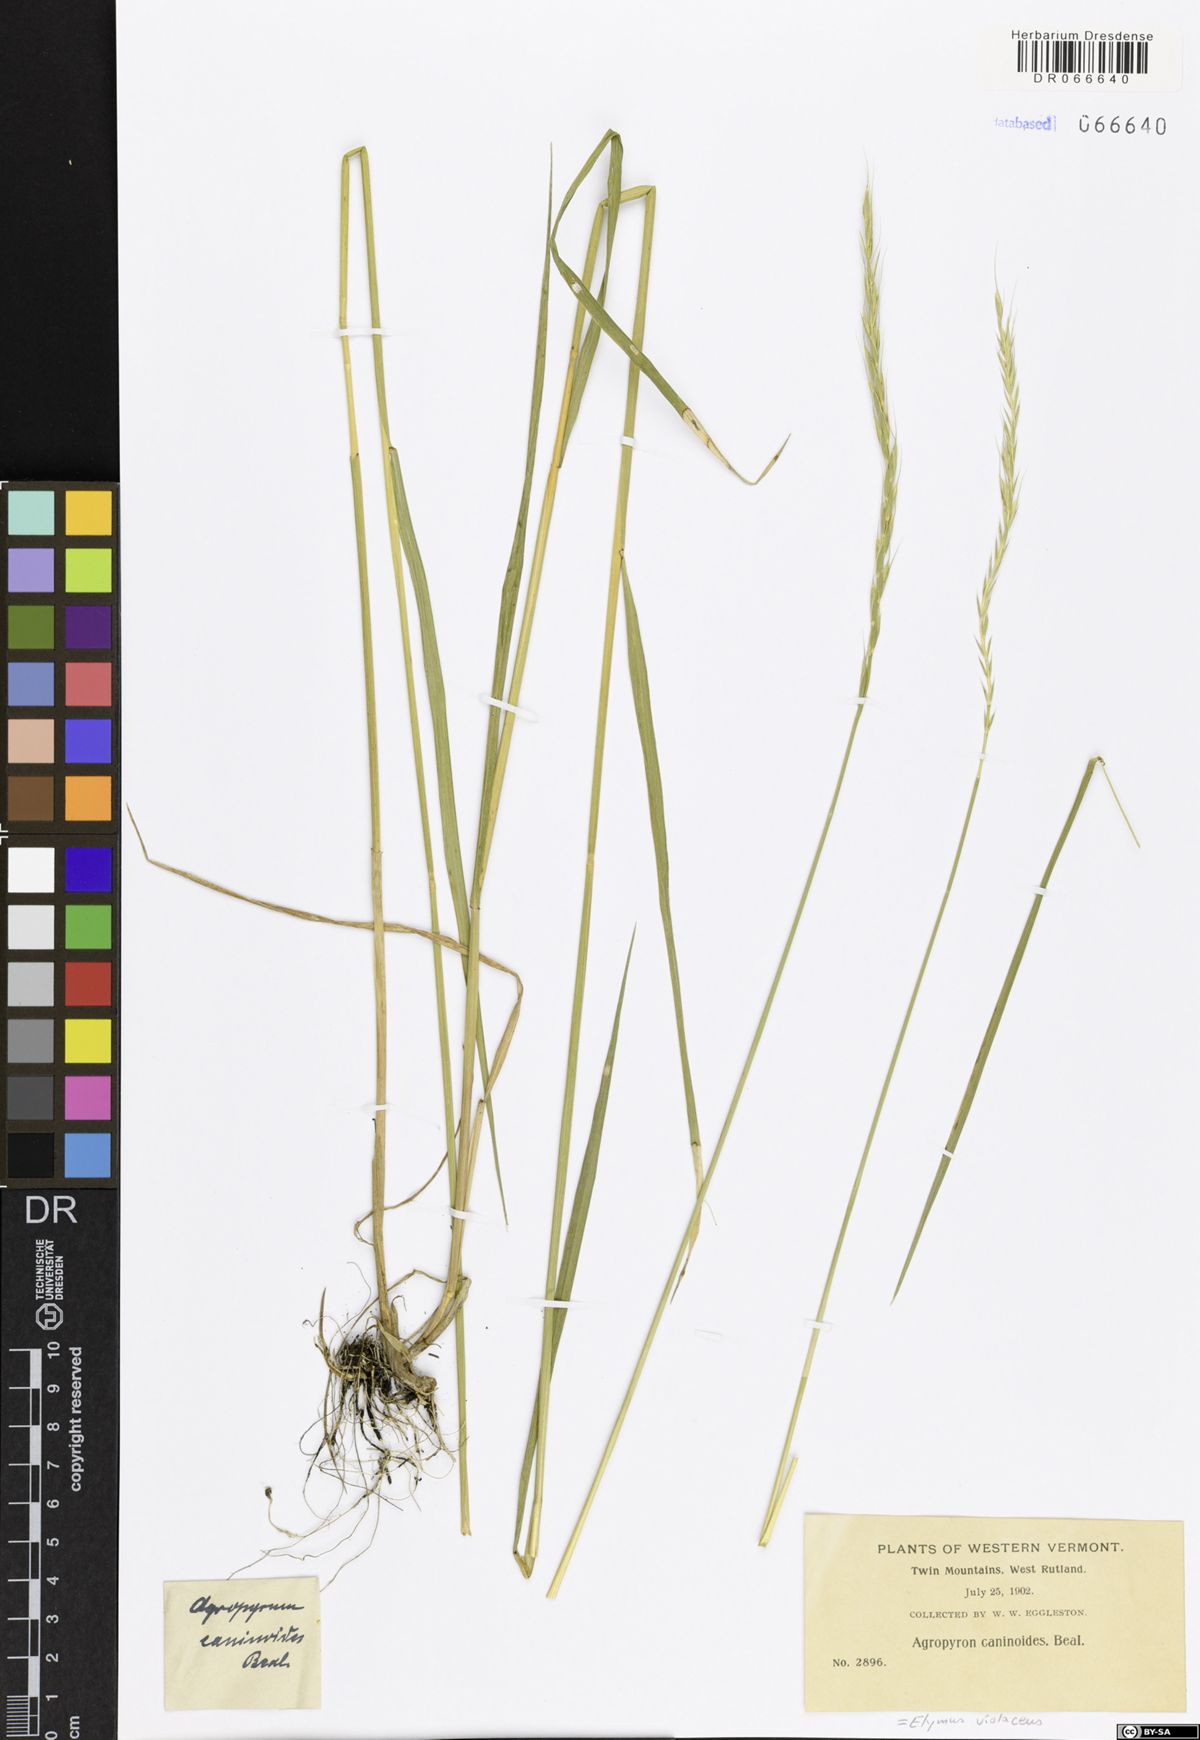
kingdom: Plantae
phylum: Tracheophyta
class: Liliopsida
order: Poales
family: Poaceae
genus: Elymus
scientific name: Elymus violaceus
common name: Arctic wheatgrass
